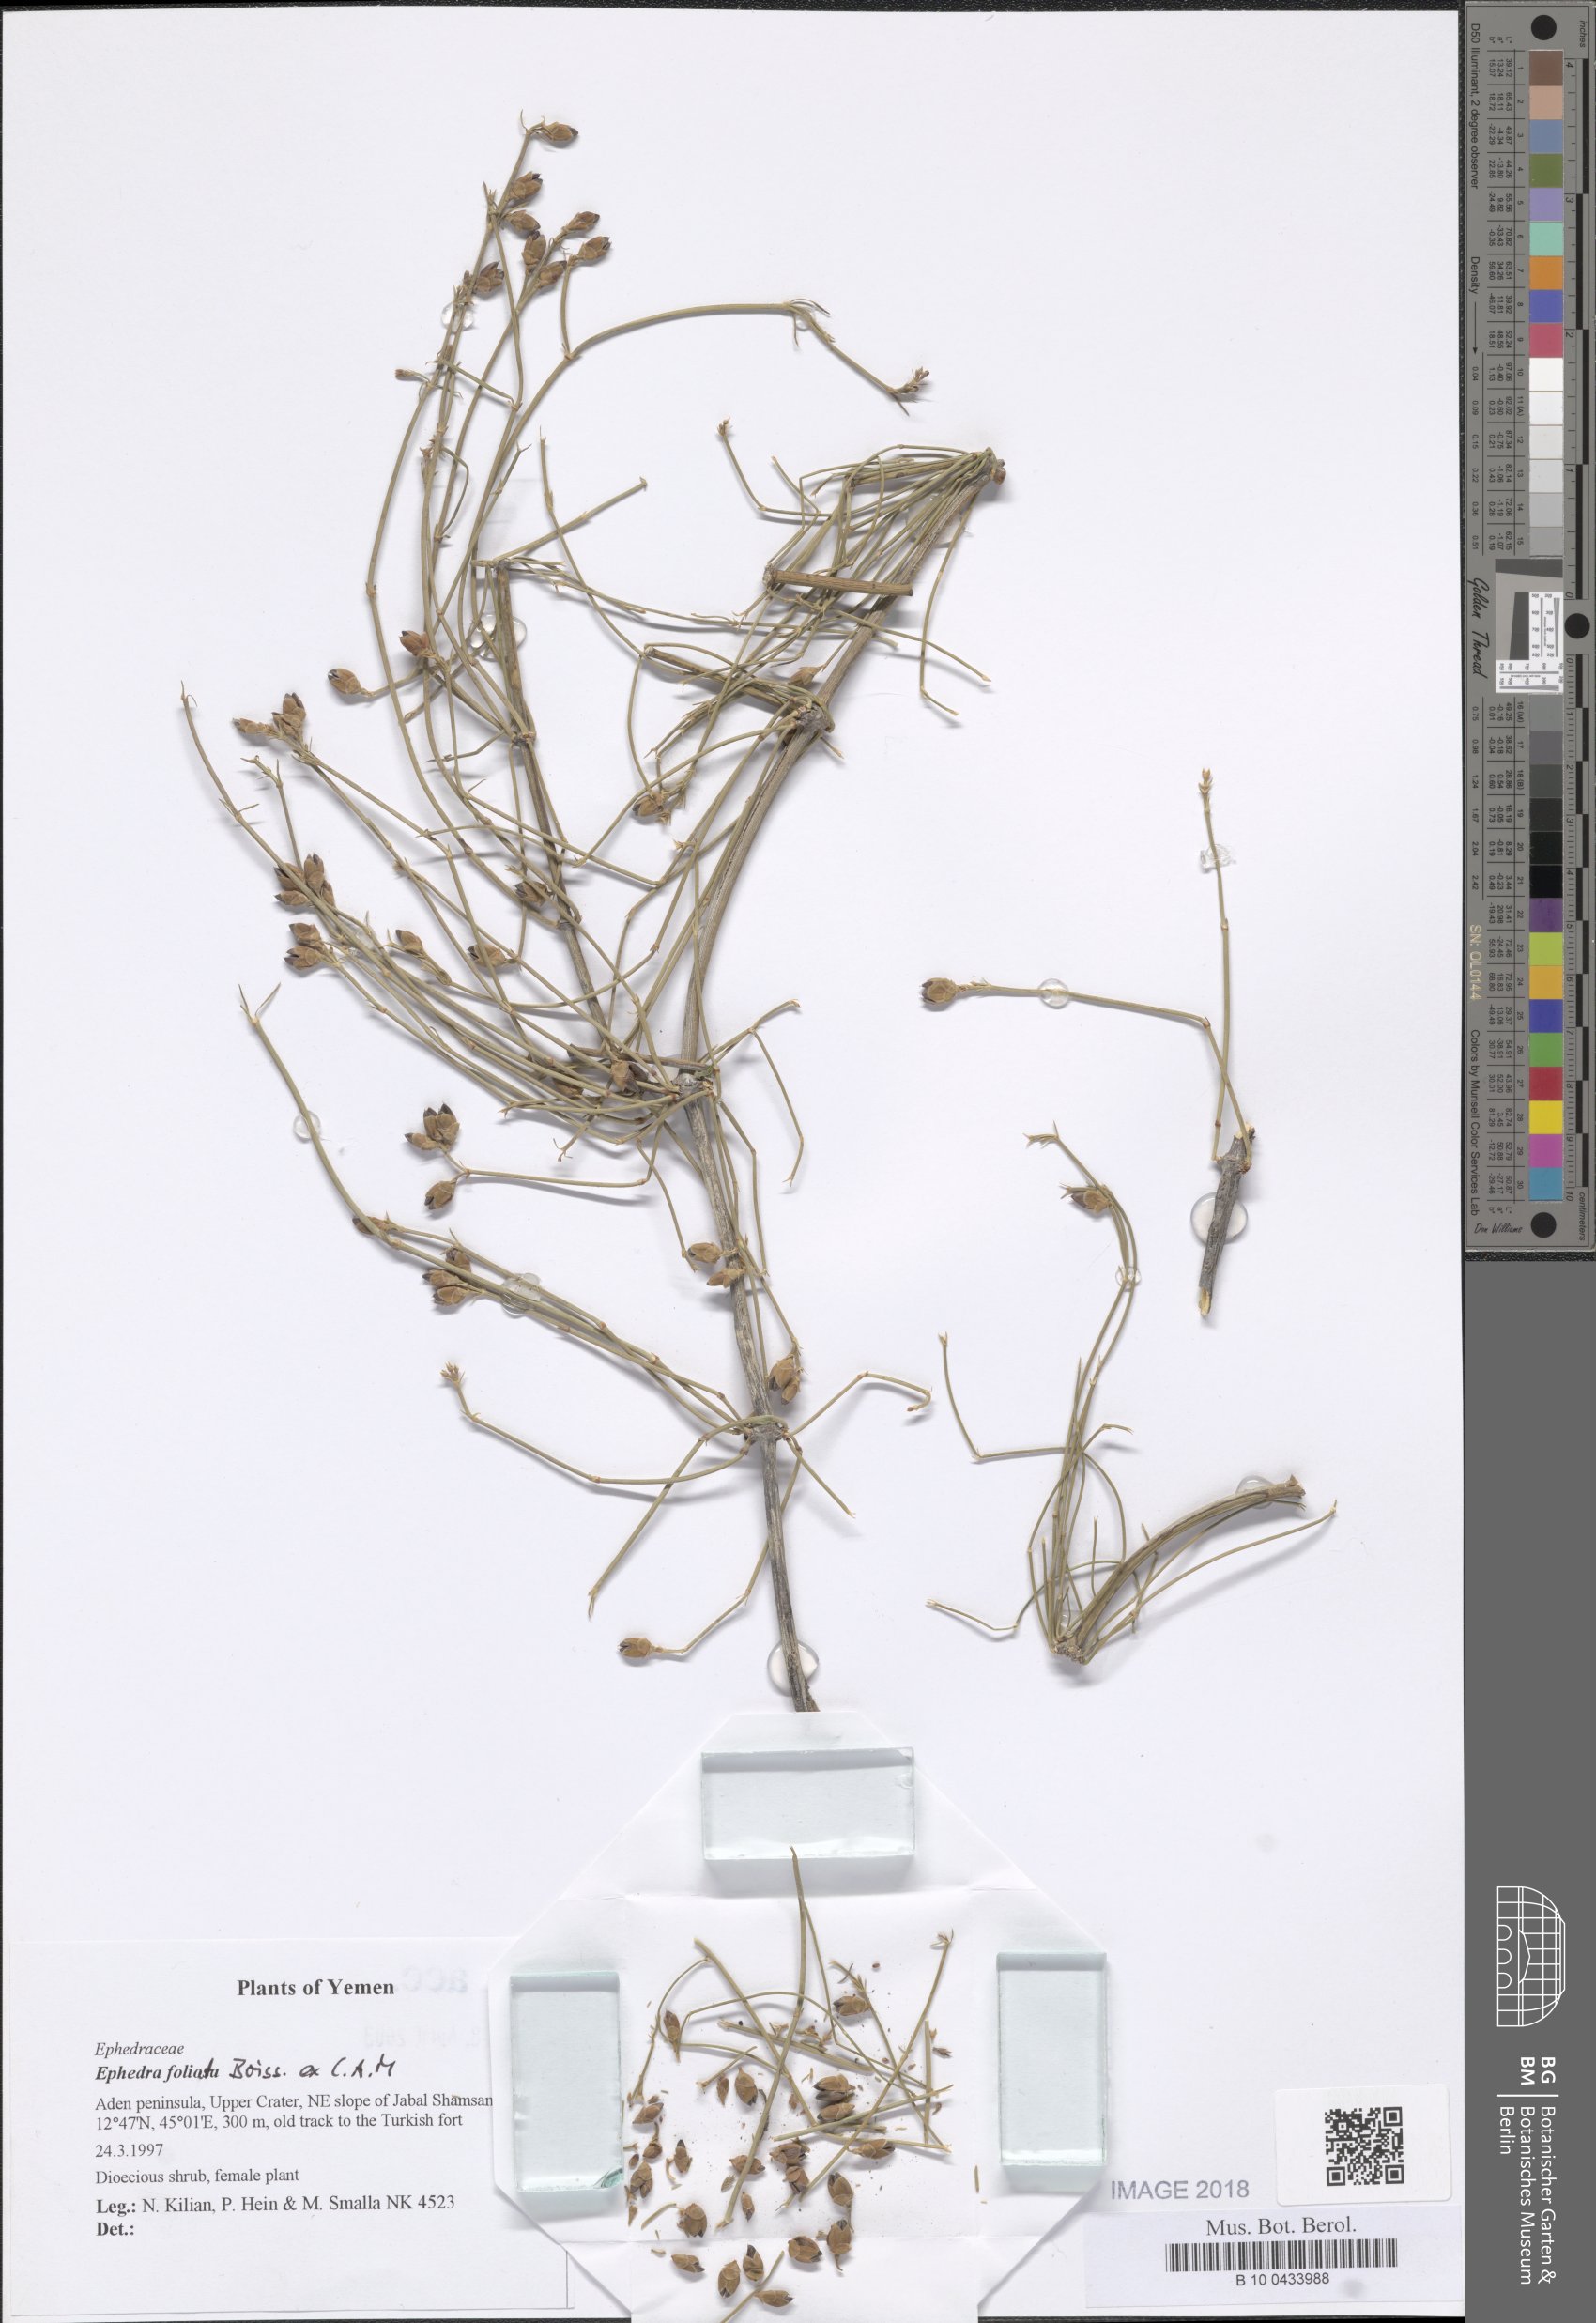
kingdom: Plantae
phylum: Tracheophyta
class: Gnetopsida
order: Ephedrales
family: Ephedraceae
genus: Ephedra
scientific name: Ephedra ciliata
